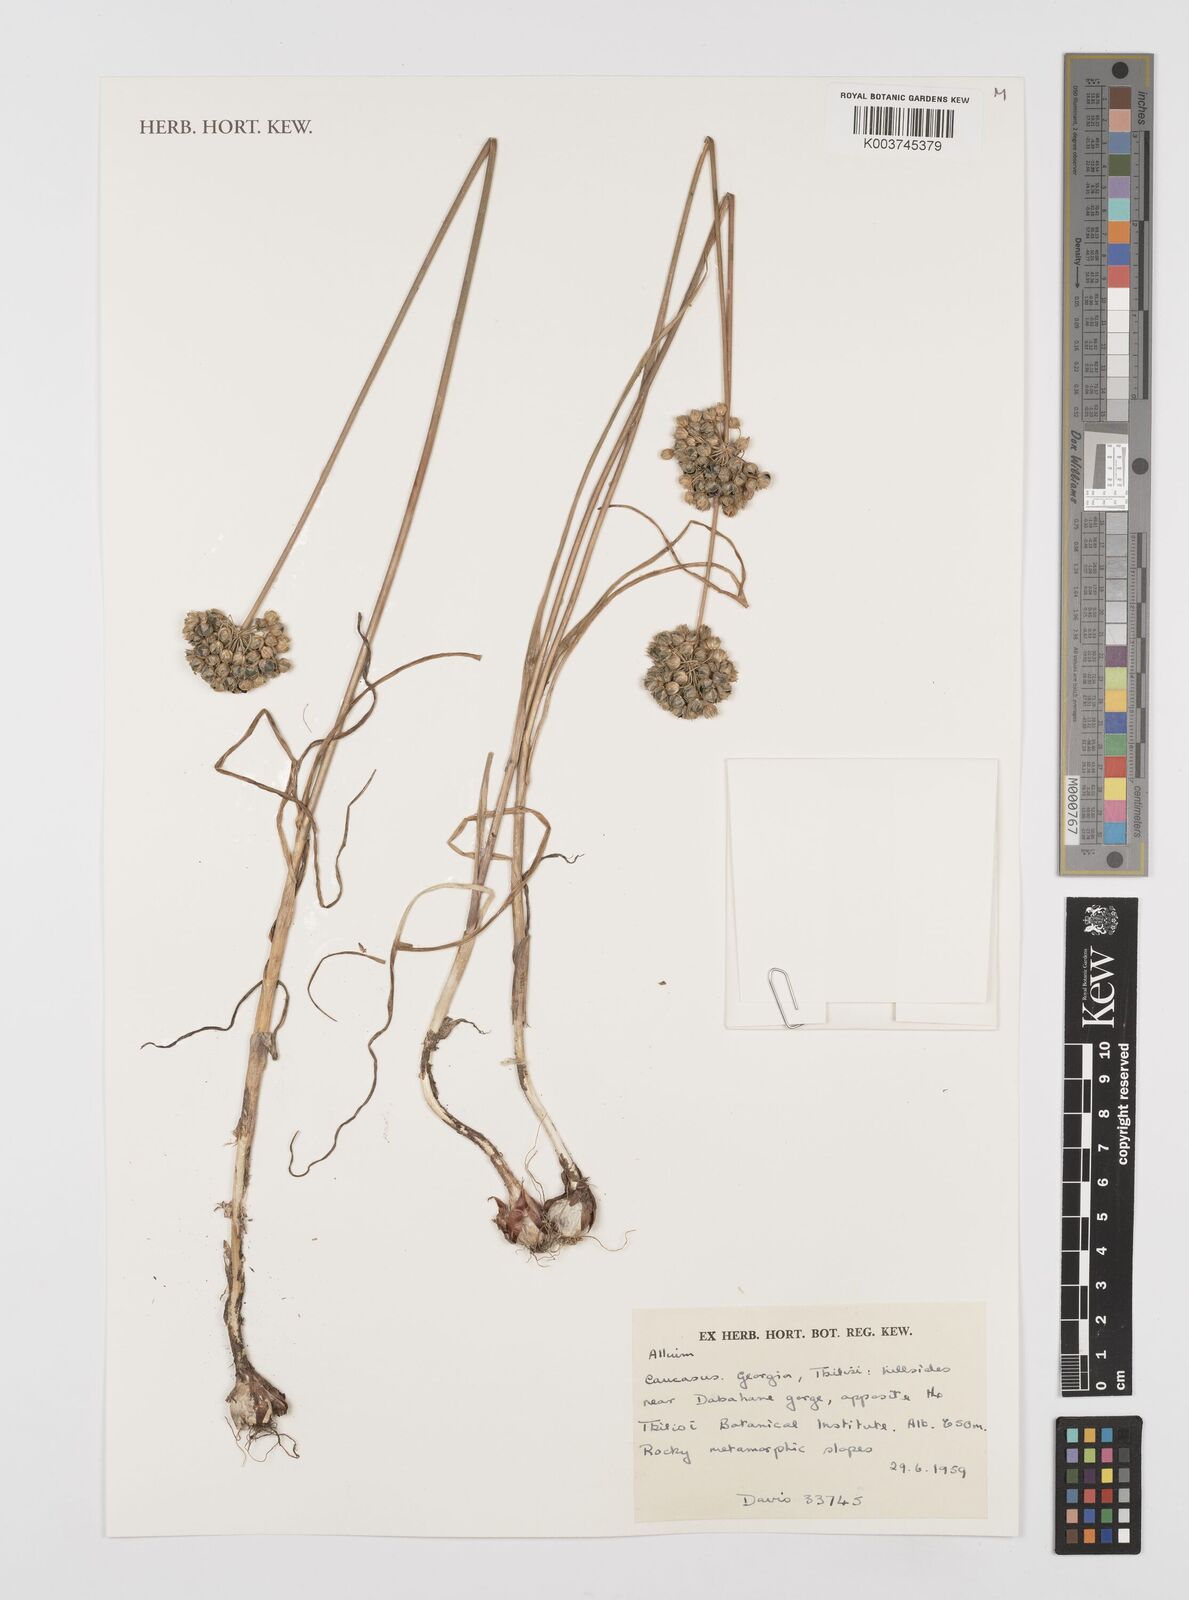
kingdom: Plantae
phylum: Tracheophyta
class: Liliopsida
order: Asparagales
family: Amaryllidaceae
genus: Allium
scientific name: Allium
